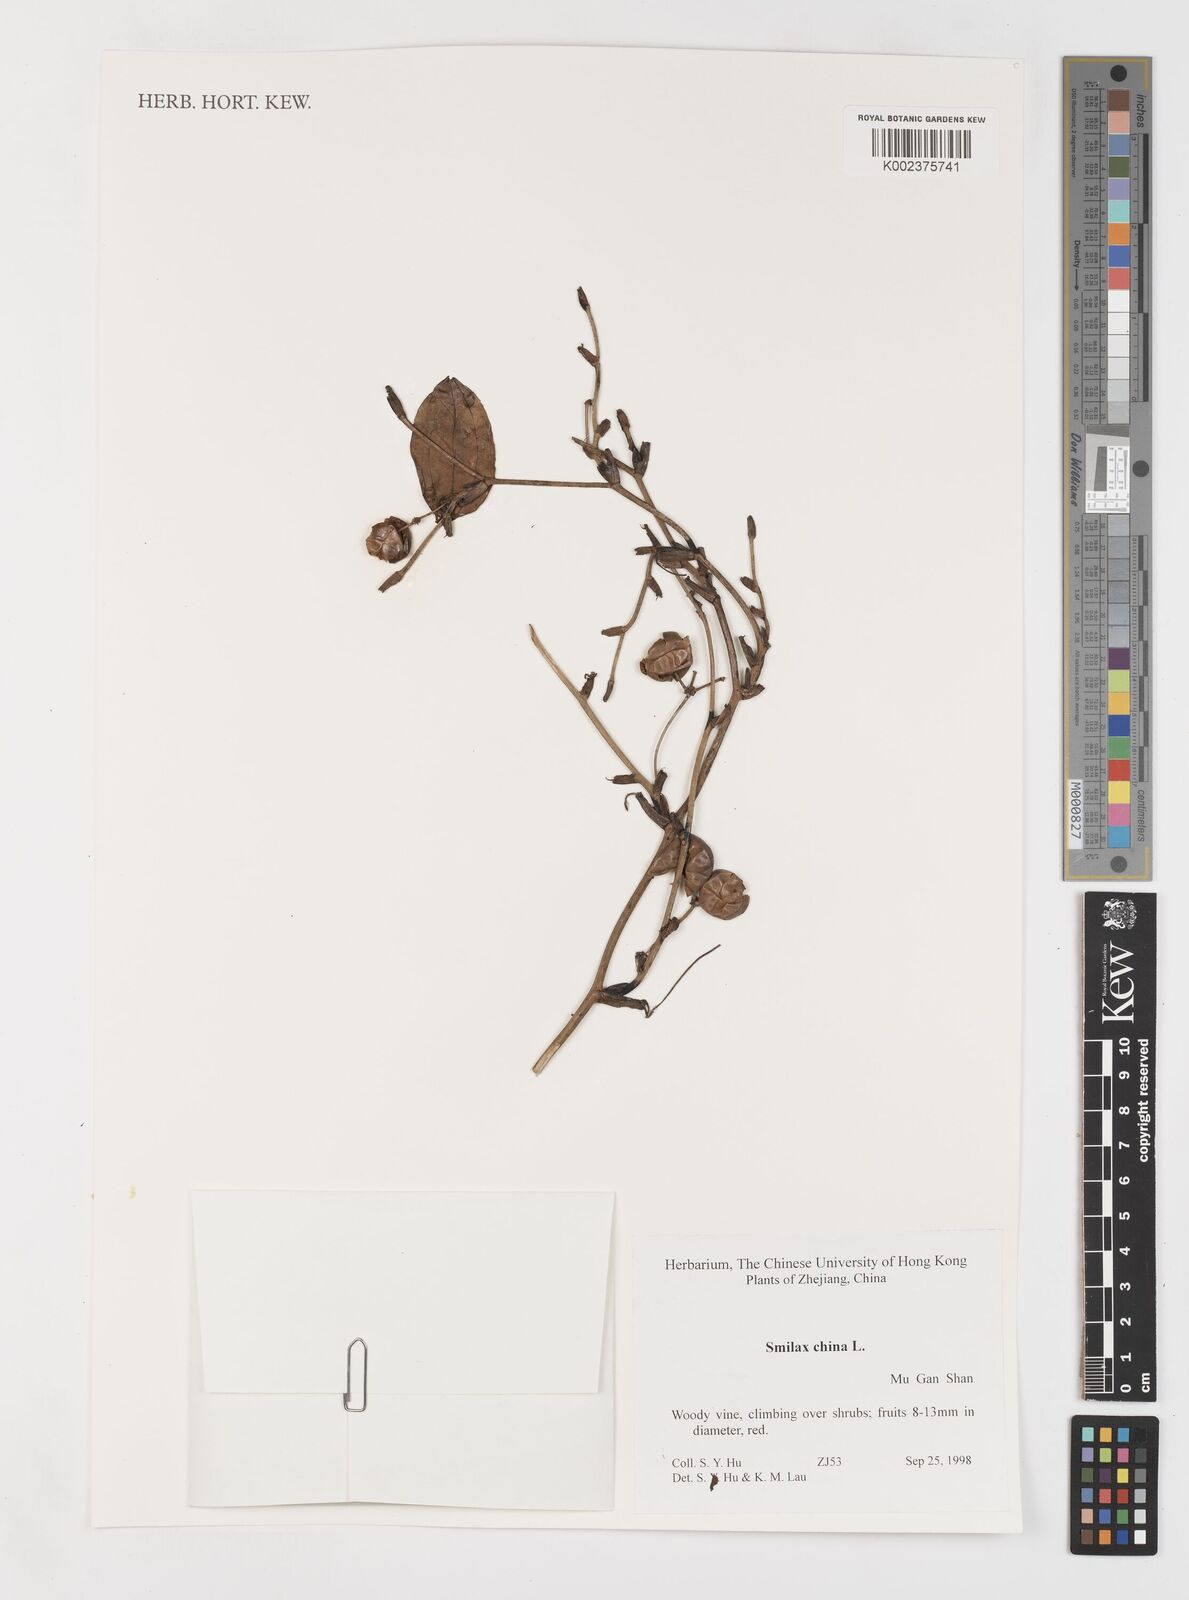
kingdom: Plantae
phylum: Tracheophyta
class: Liliopsida
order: Liliales
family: Smilacaceae
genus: Smilax
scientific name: Smilax china
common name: Chinaroot
